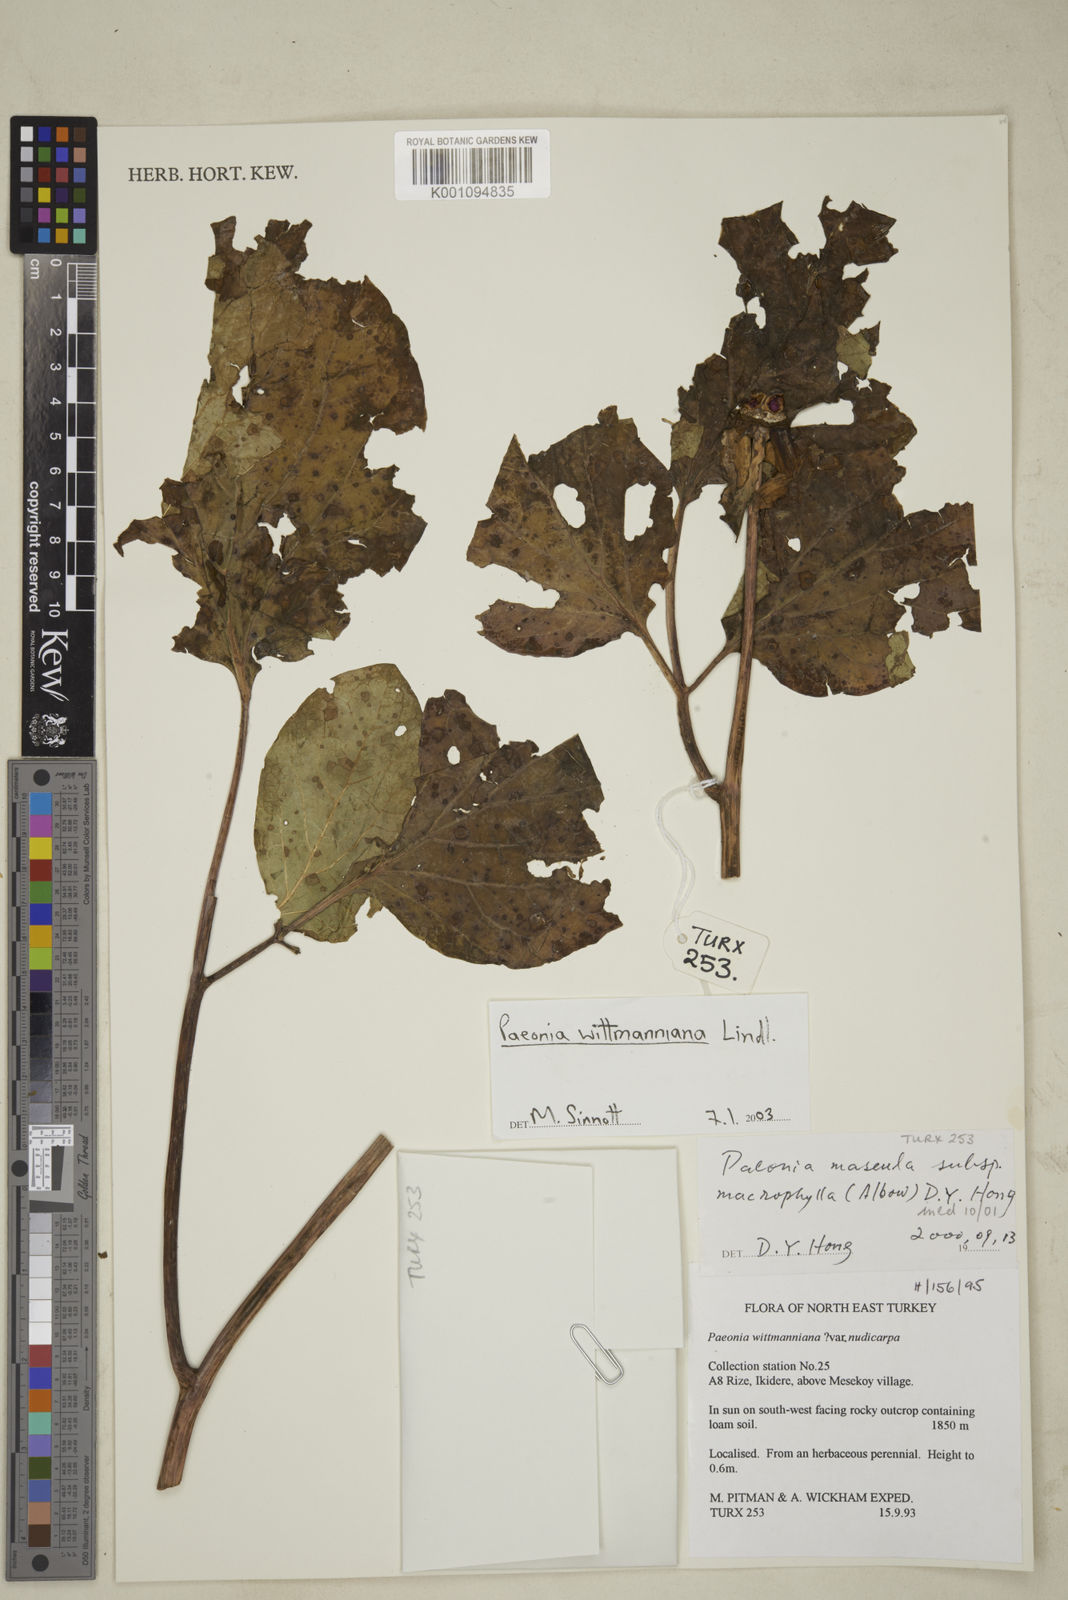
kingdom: Plantae
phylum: Tracheophyta
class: Magnoliopsida
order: Saxifragales
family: Paeoniaceae
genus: Paeonia
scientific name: Paeonia wittmanniana
